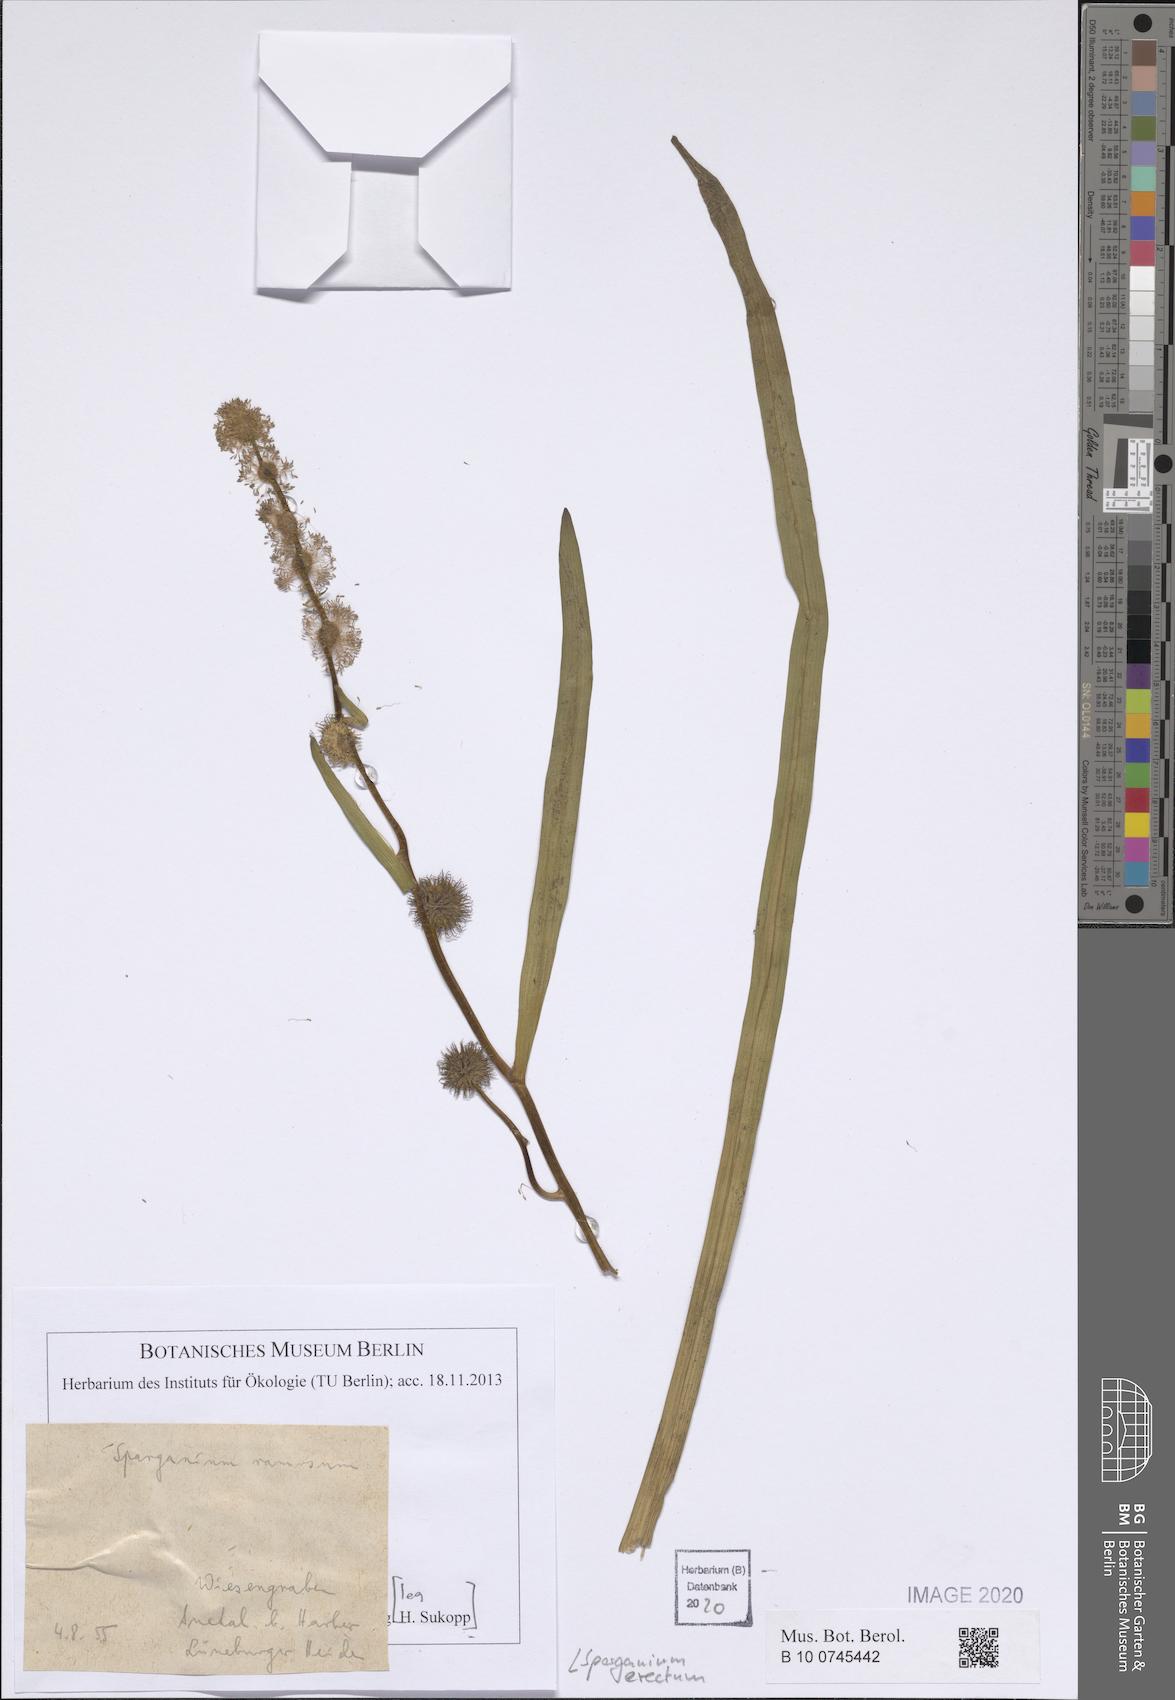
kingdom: Plantae
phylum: Tracheophyta
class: Liliopsida
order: Poales
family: Typhaceae
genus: Sparganium
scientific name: Sparganium erectum
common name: Branched bur-reed
